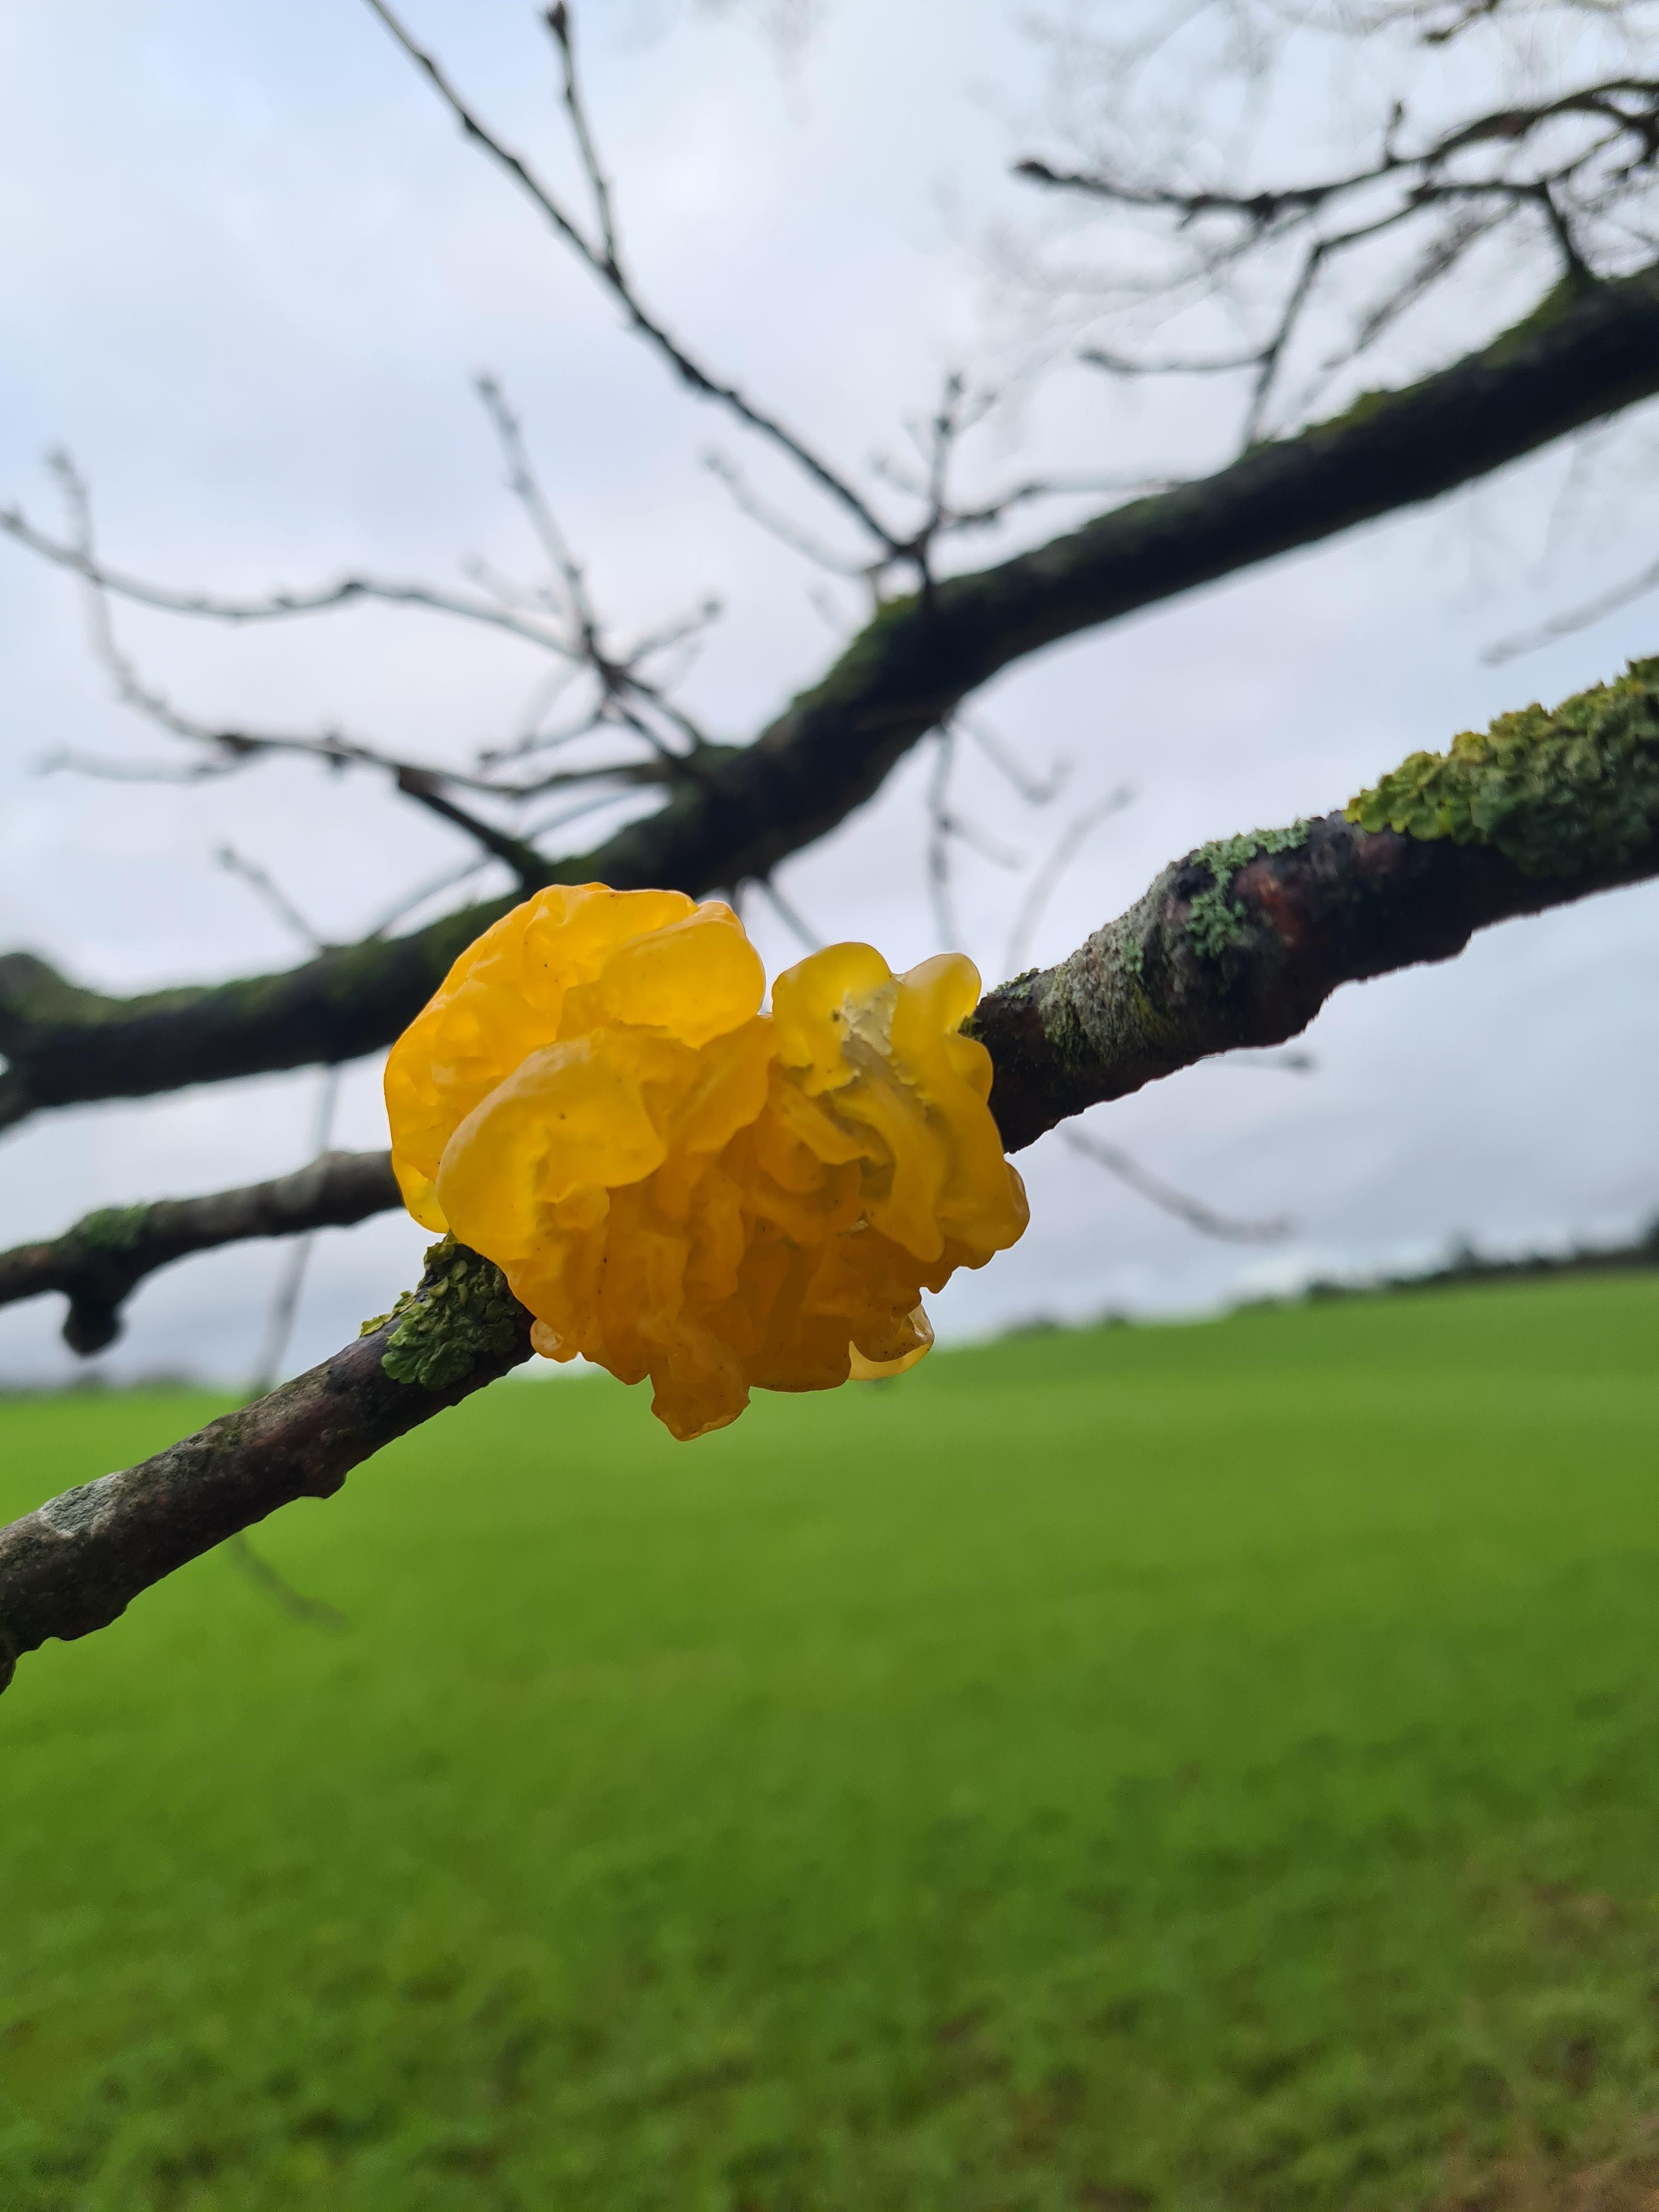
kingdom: Fungi
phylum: Basidiomycota
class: Tremellomycetes
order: Tremellales
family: Tremellaceae
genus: Tremella
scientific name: Tremella mesenterica
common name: gul bævresvamp
